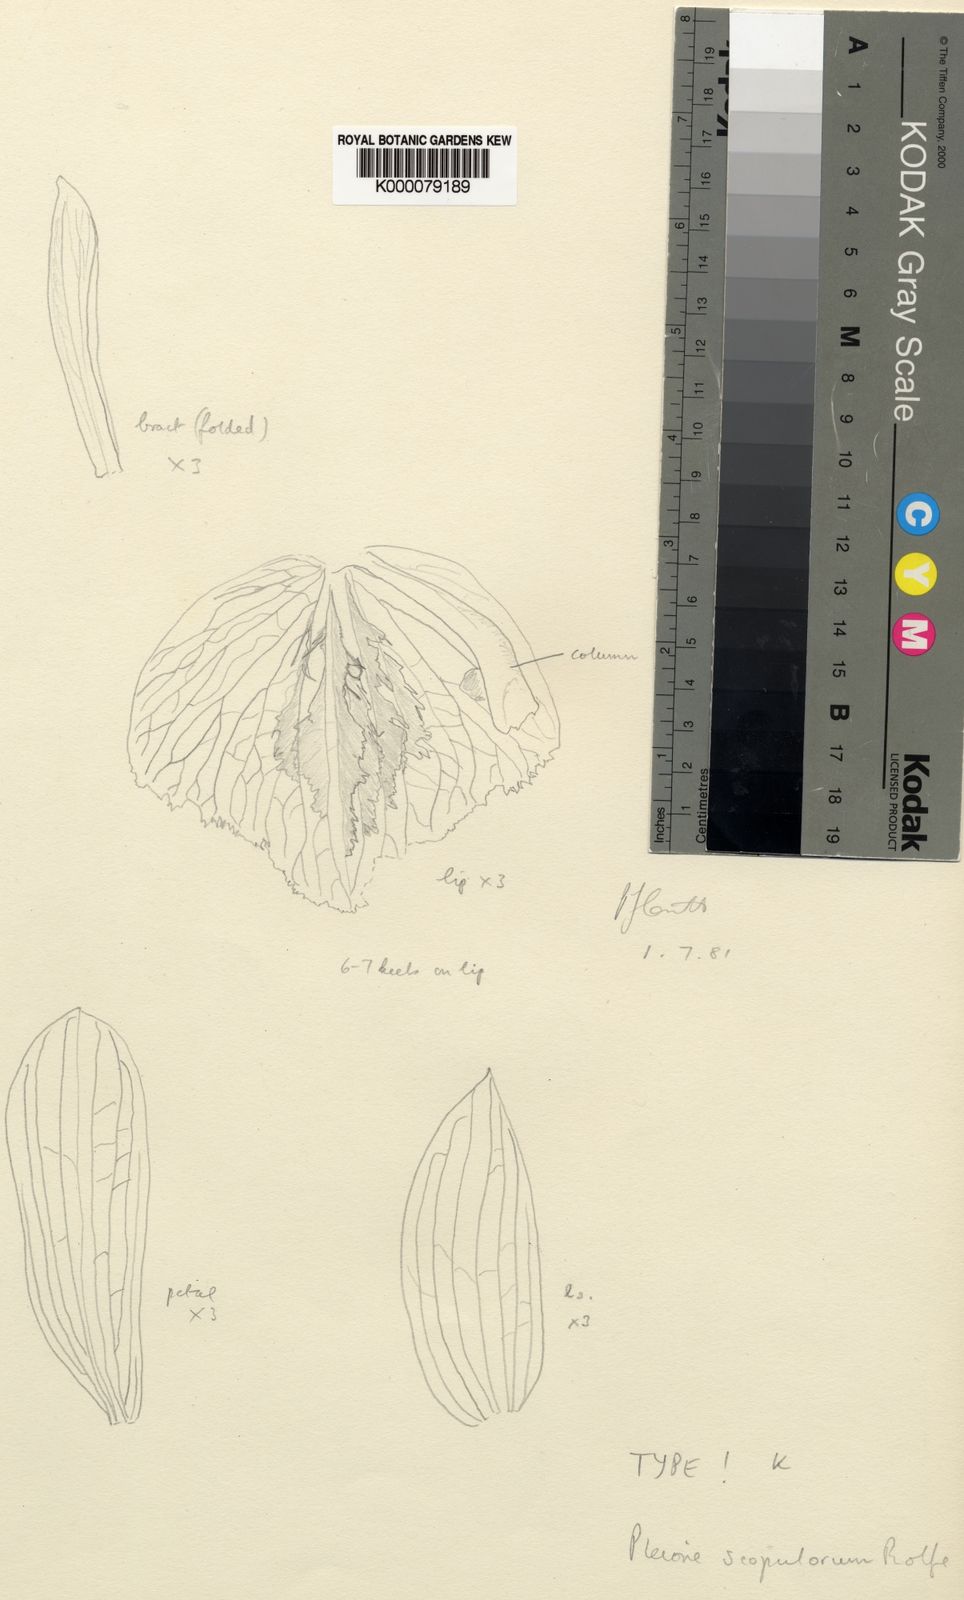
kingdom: Plantae
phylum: Tracheophyta
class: Liliopsida
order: Asparagales
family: Orchidaceae
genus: Pleione
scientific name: Pleione scopulorum
